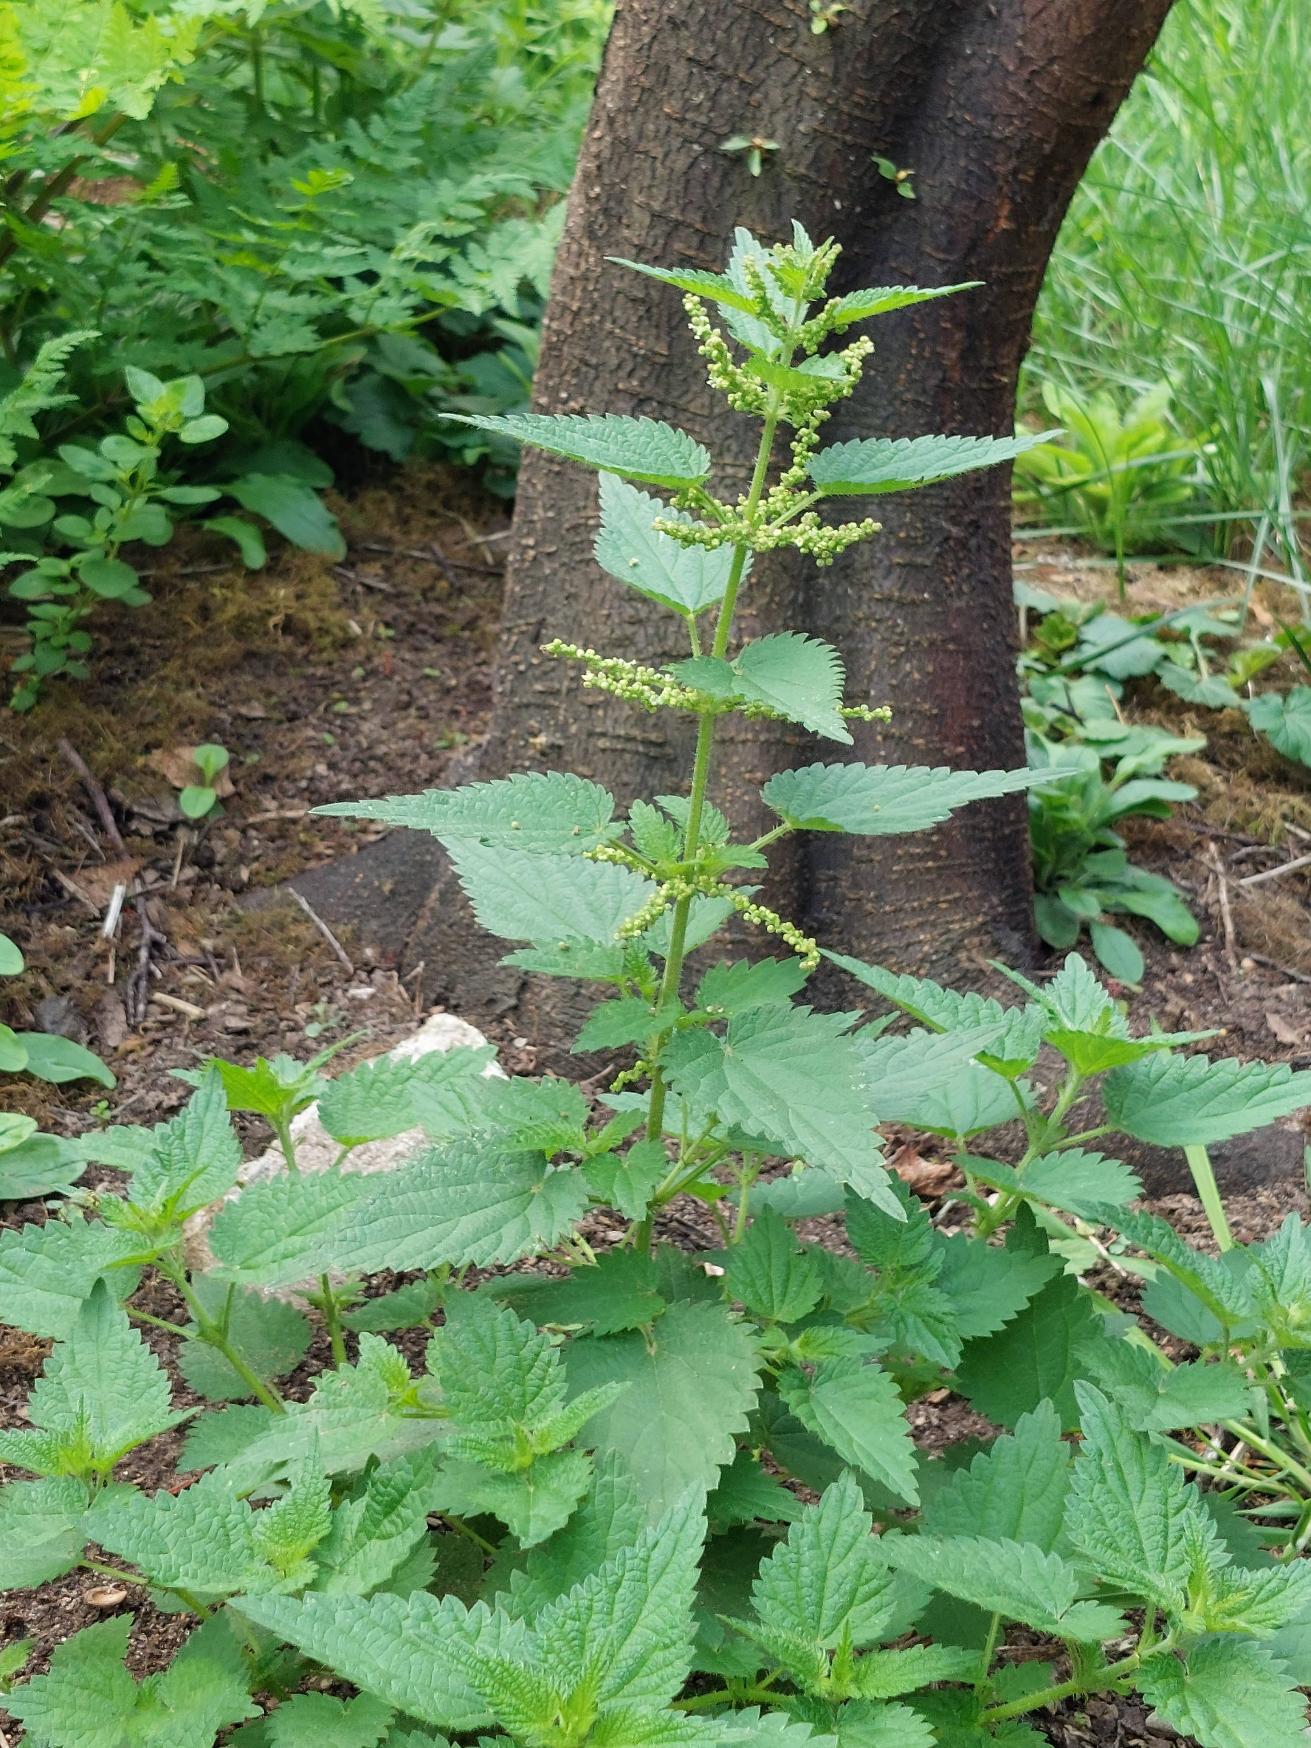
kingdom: Plantae
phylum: Tracheophyta
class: Magnoliopsida
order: Rosales
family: Urticaceae
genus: Urtica
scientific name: Urtica dioica
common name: Stor nælde
